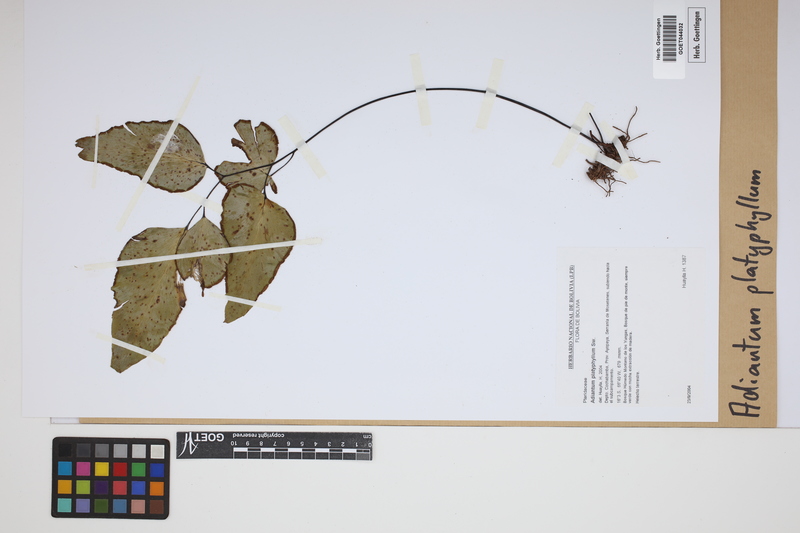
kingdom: Plantae
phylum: Tracheophyta
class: Polypodiopsida
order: Polypodiales
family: Pteridaceae
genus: Adiantum
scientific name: Adiantum platyphyllum
